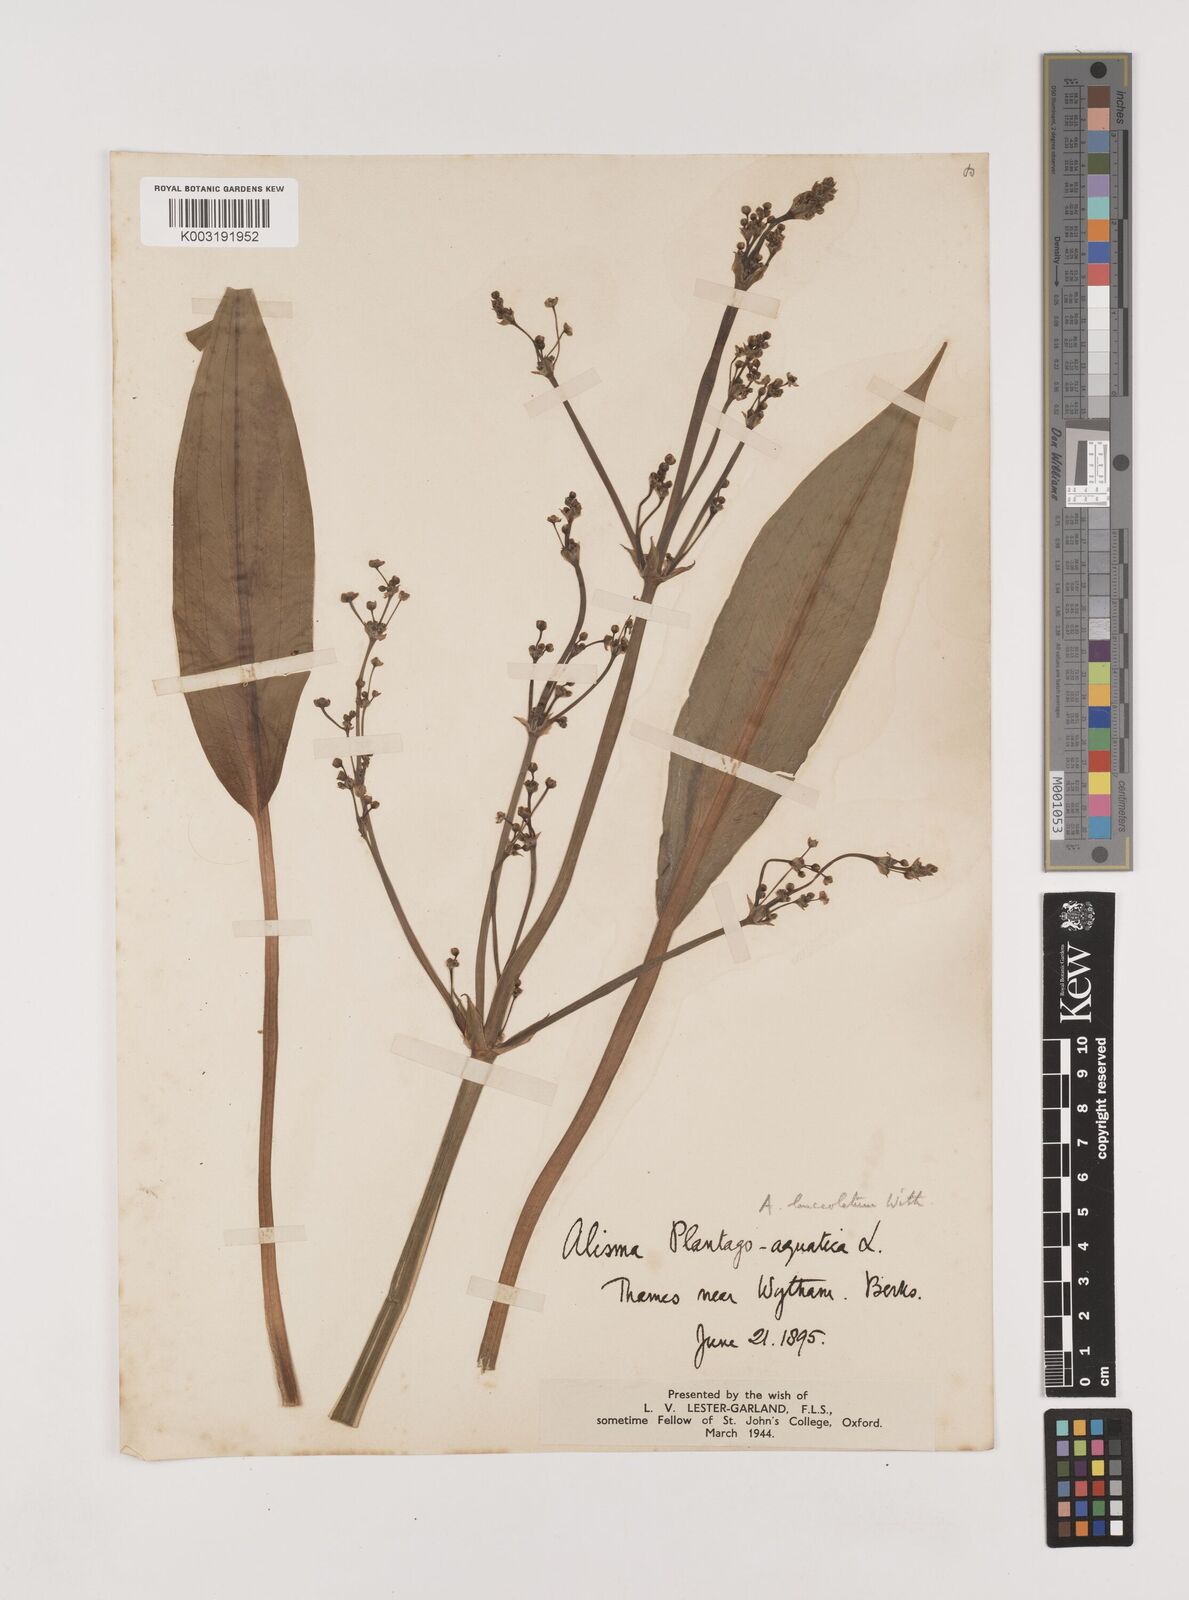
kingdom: Plantae
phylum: Tracheophyta
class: Liliopsida
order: Alismatales
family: Alismataceae
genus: Alisma
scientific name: Alisma lanceolatum
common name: Narrow-leaved water-plantain
